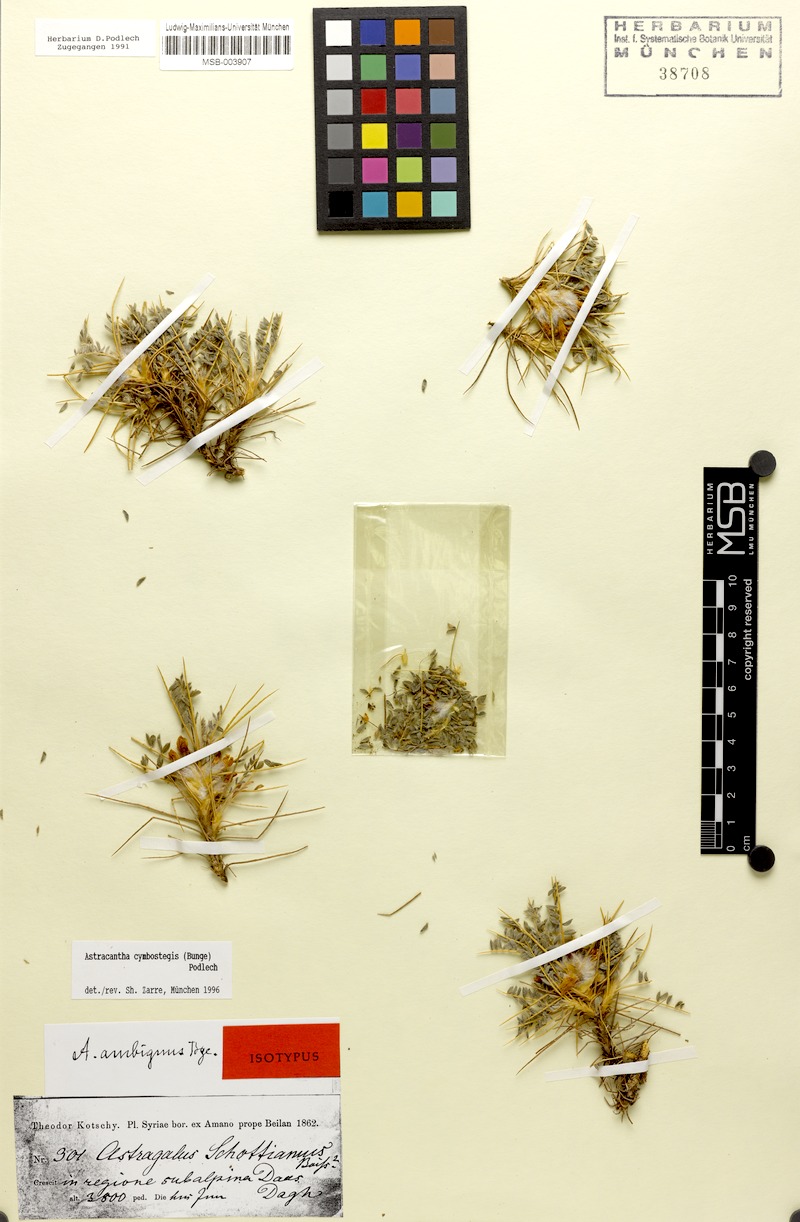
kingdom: Plantae
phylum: Tracheophyta
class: Magnoliopsida
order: Fabales
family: Fabaceae
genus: Astragalus
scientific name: Astragalus cymbostegis
